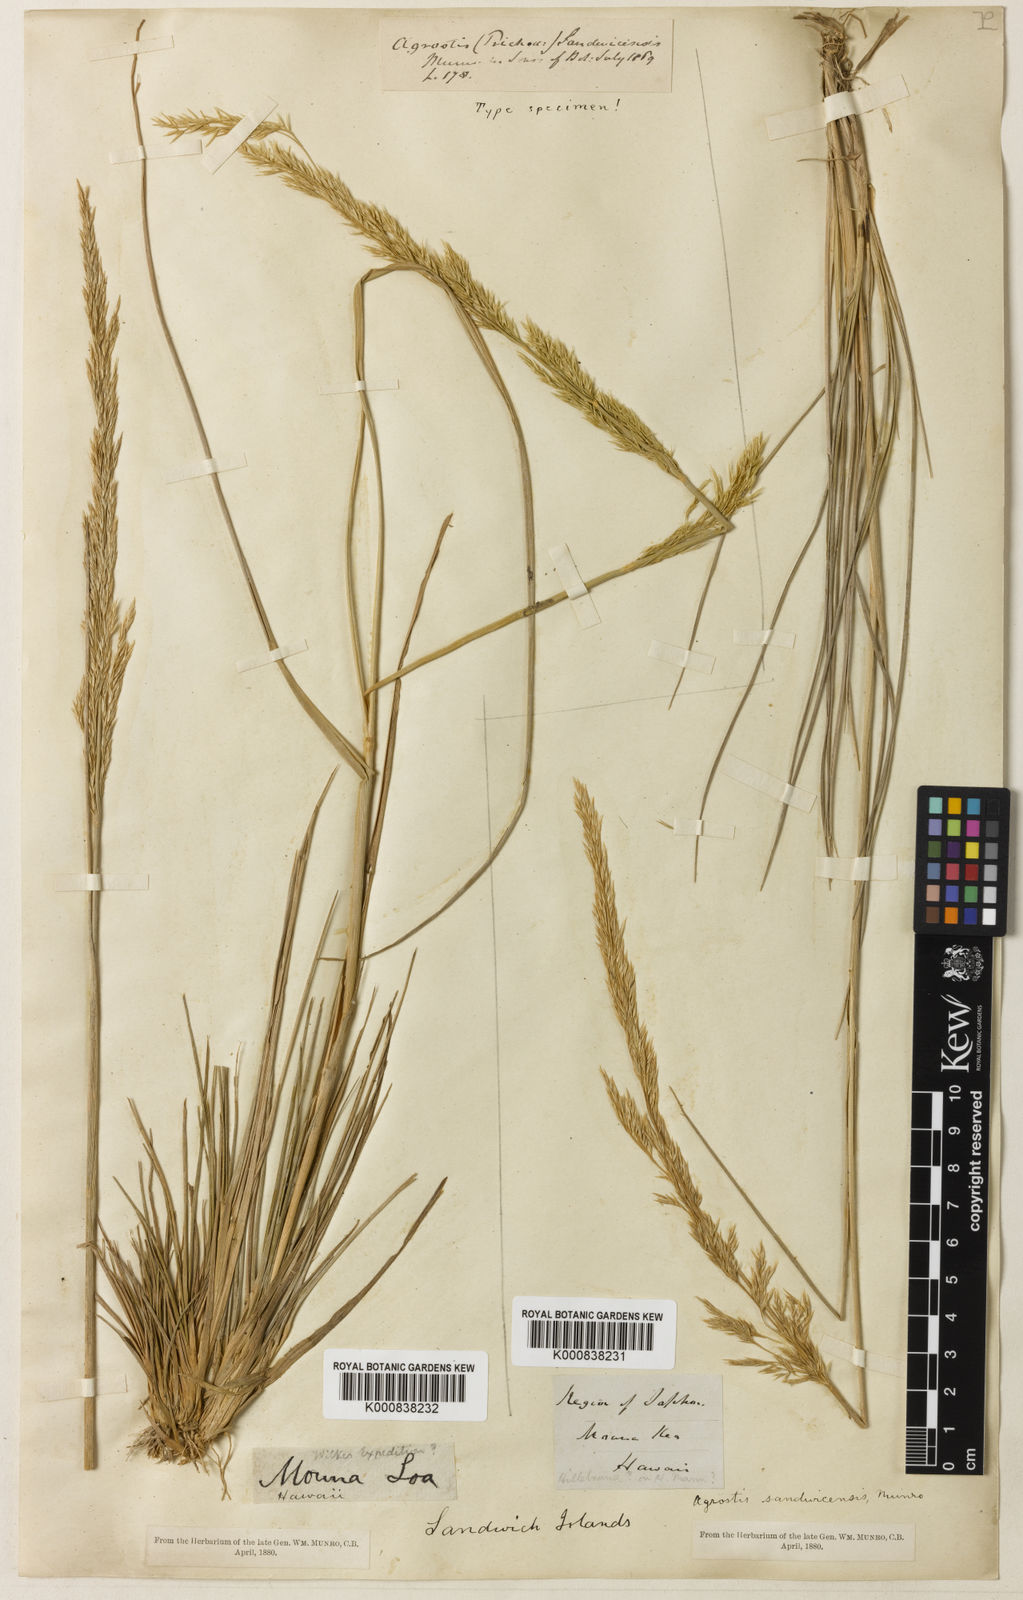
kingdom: Plantae
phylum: Tracheophyta
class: Liliopsida
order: Poales
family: Poaceae
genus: Agrostis
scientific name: Agrostis
